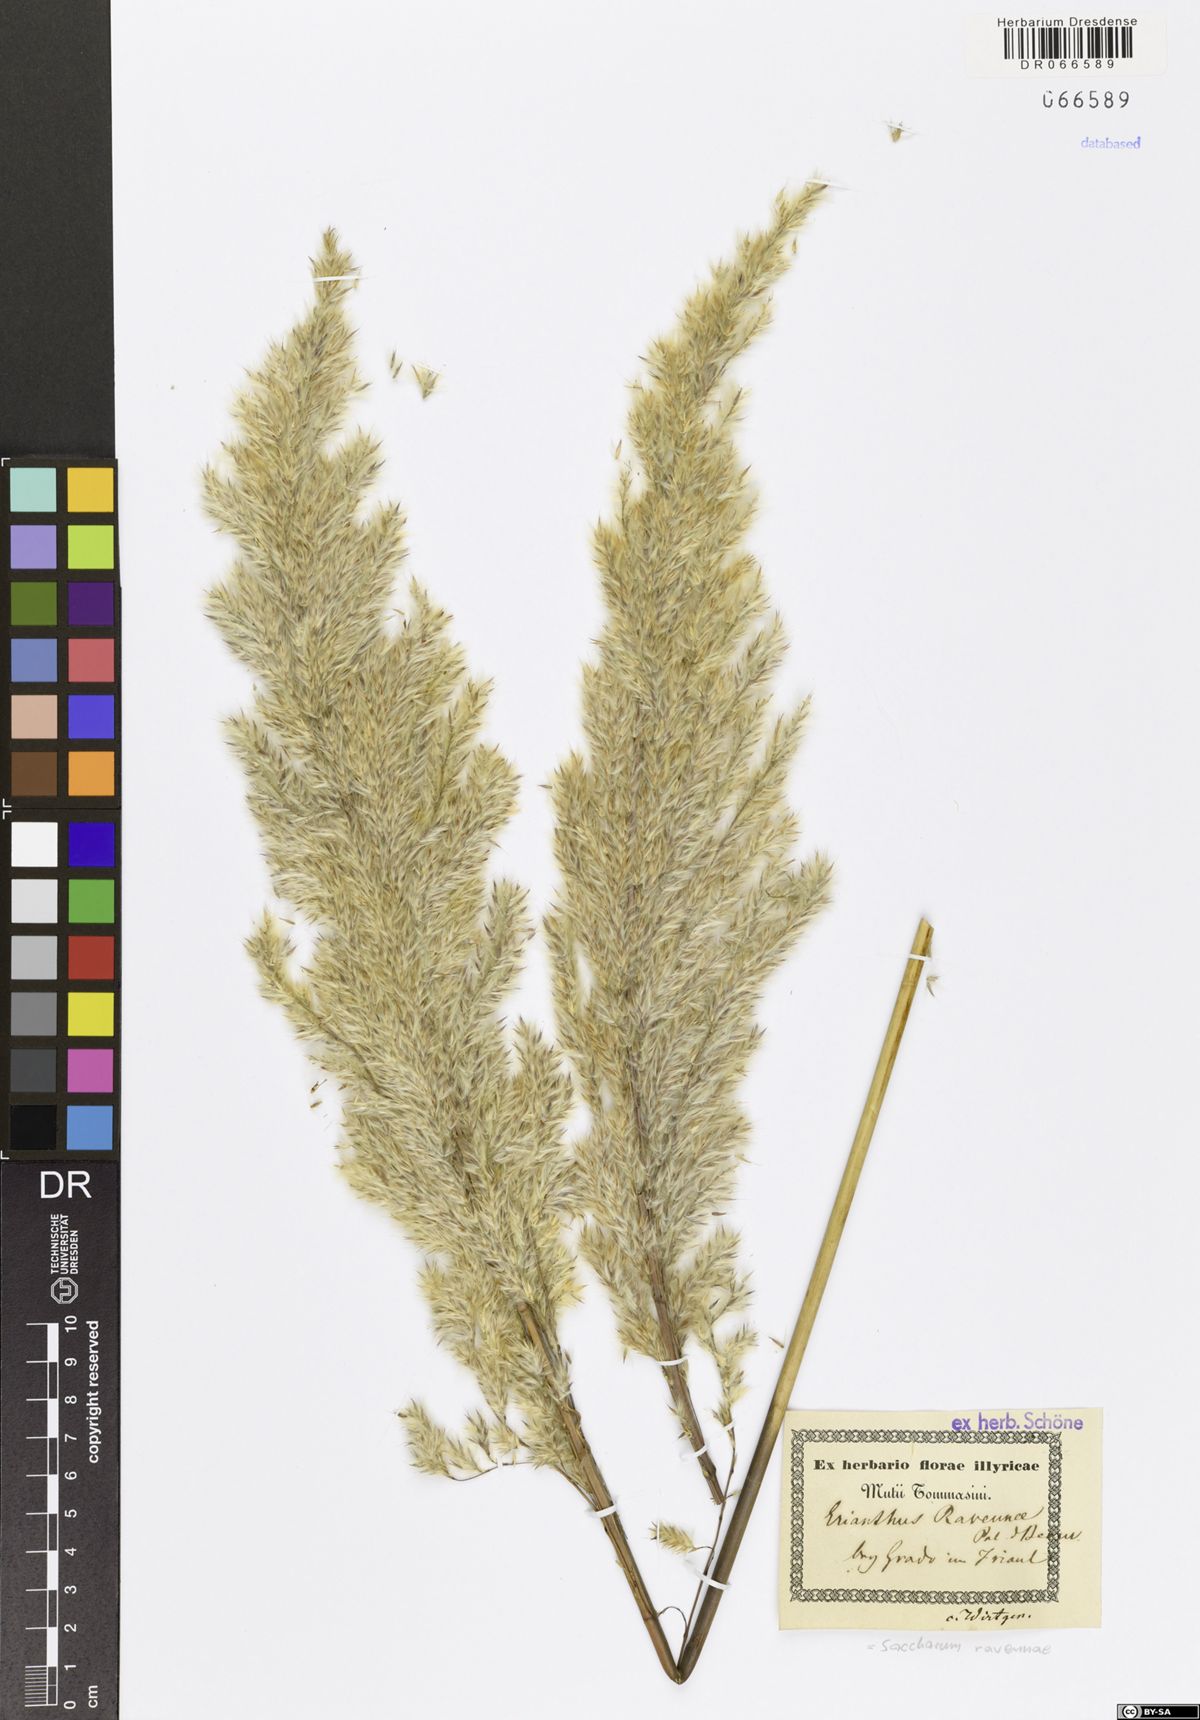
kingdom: Plantae
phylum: Tracheophyta
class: Liliopsida
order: Poales
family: Poaceae
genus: Tripidium
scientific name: Tripidium ravennae
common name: Ravenna grass
